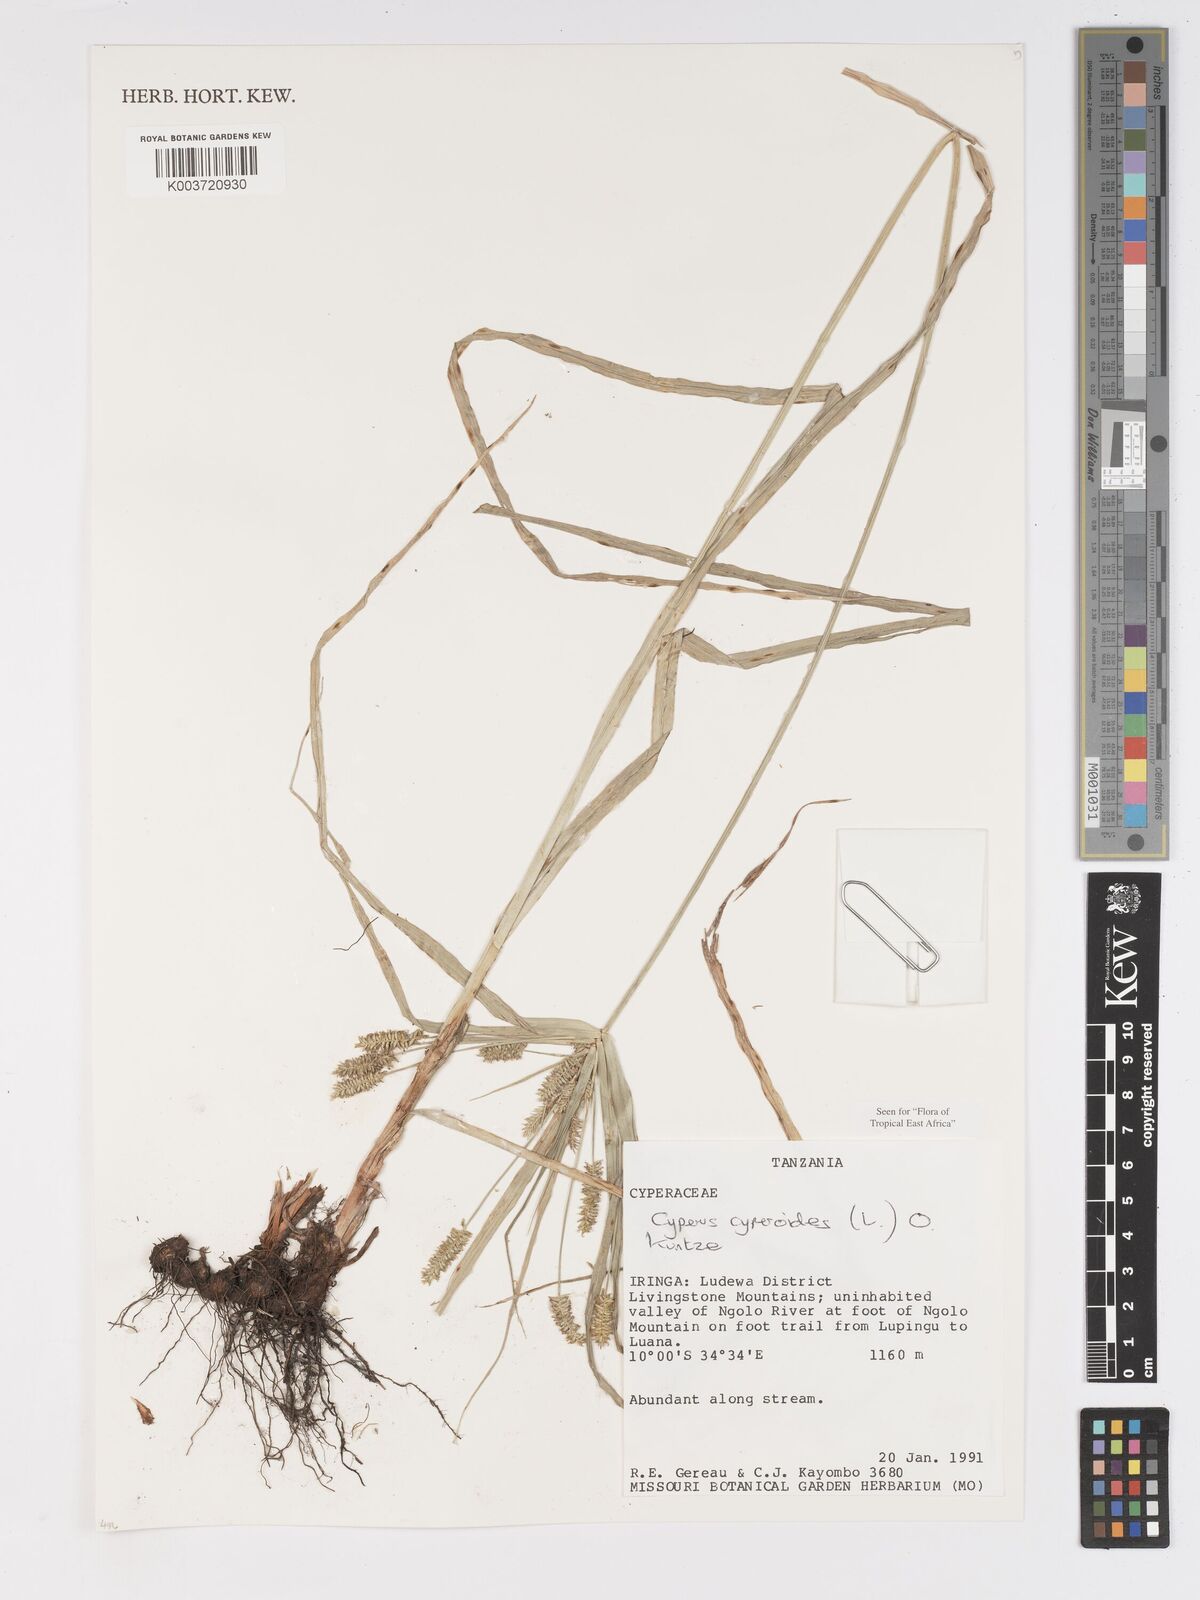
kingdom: Plantae
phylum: Tracheophyta
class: Liliopsida
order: Poales
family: Cyperaceae
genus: Cyperus
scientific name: Cyperus cyperoides
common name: Pacific island flat sedge
